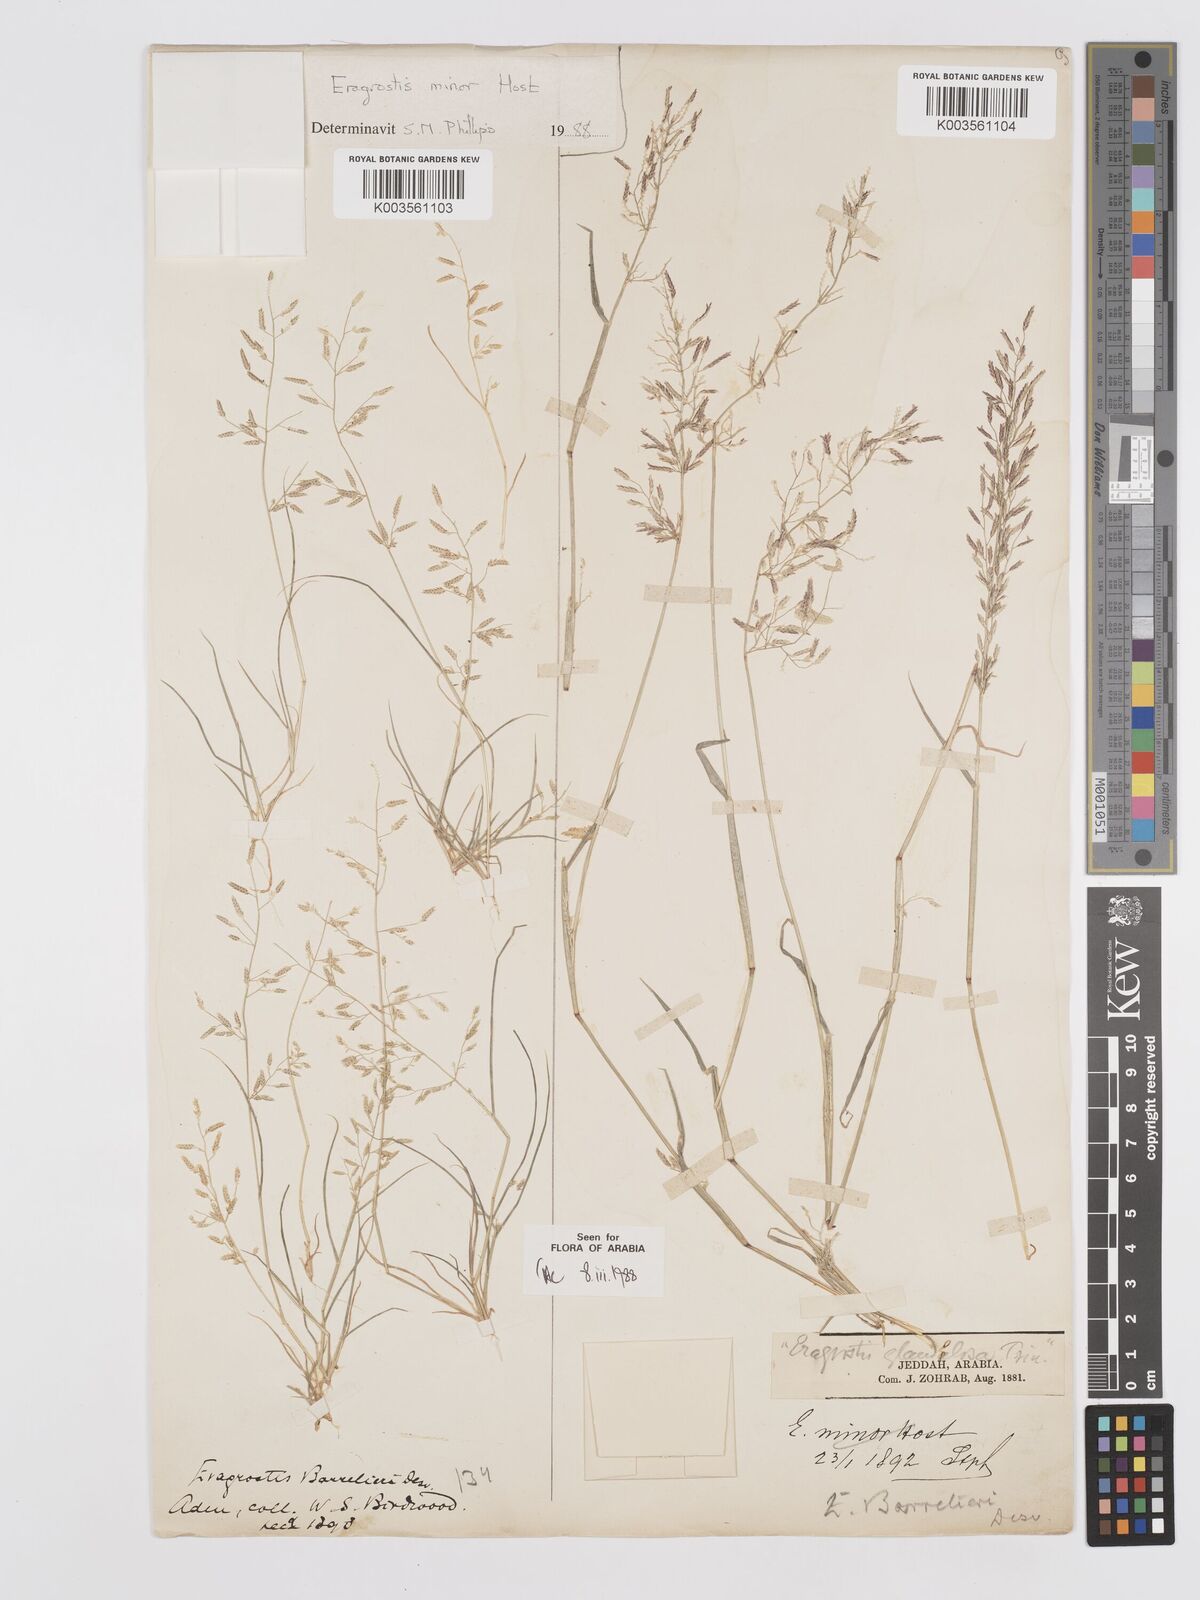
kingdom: Plantae
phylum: Tracheophyta
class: Liliopsida
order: Poales
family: Poaceae
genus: Eragrostis
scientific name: Eragrostis barrelieri
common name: Mediterranean lovegrass
